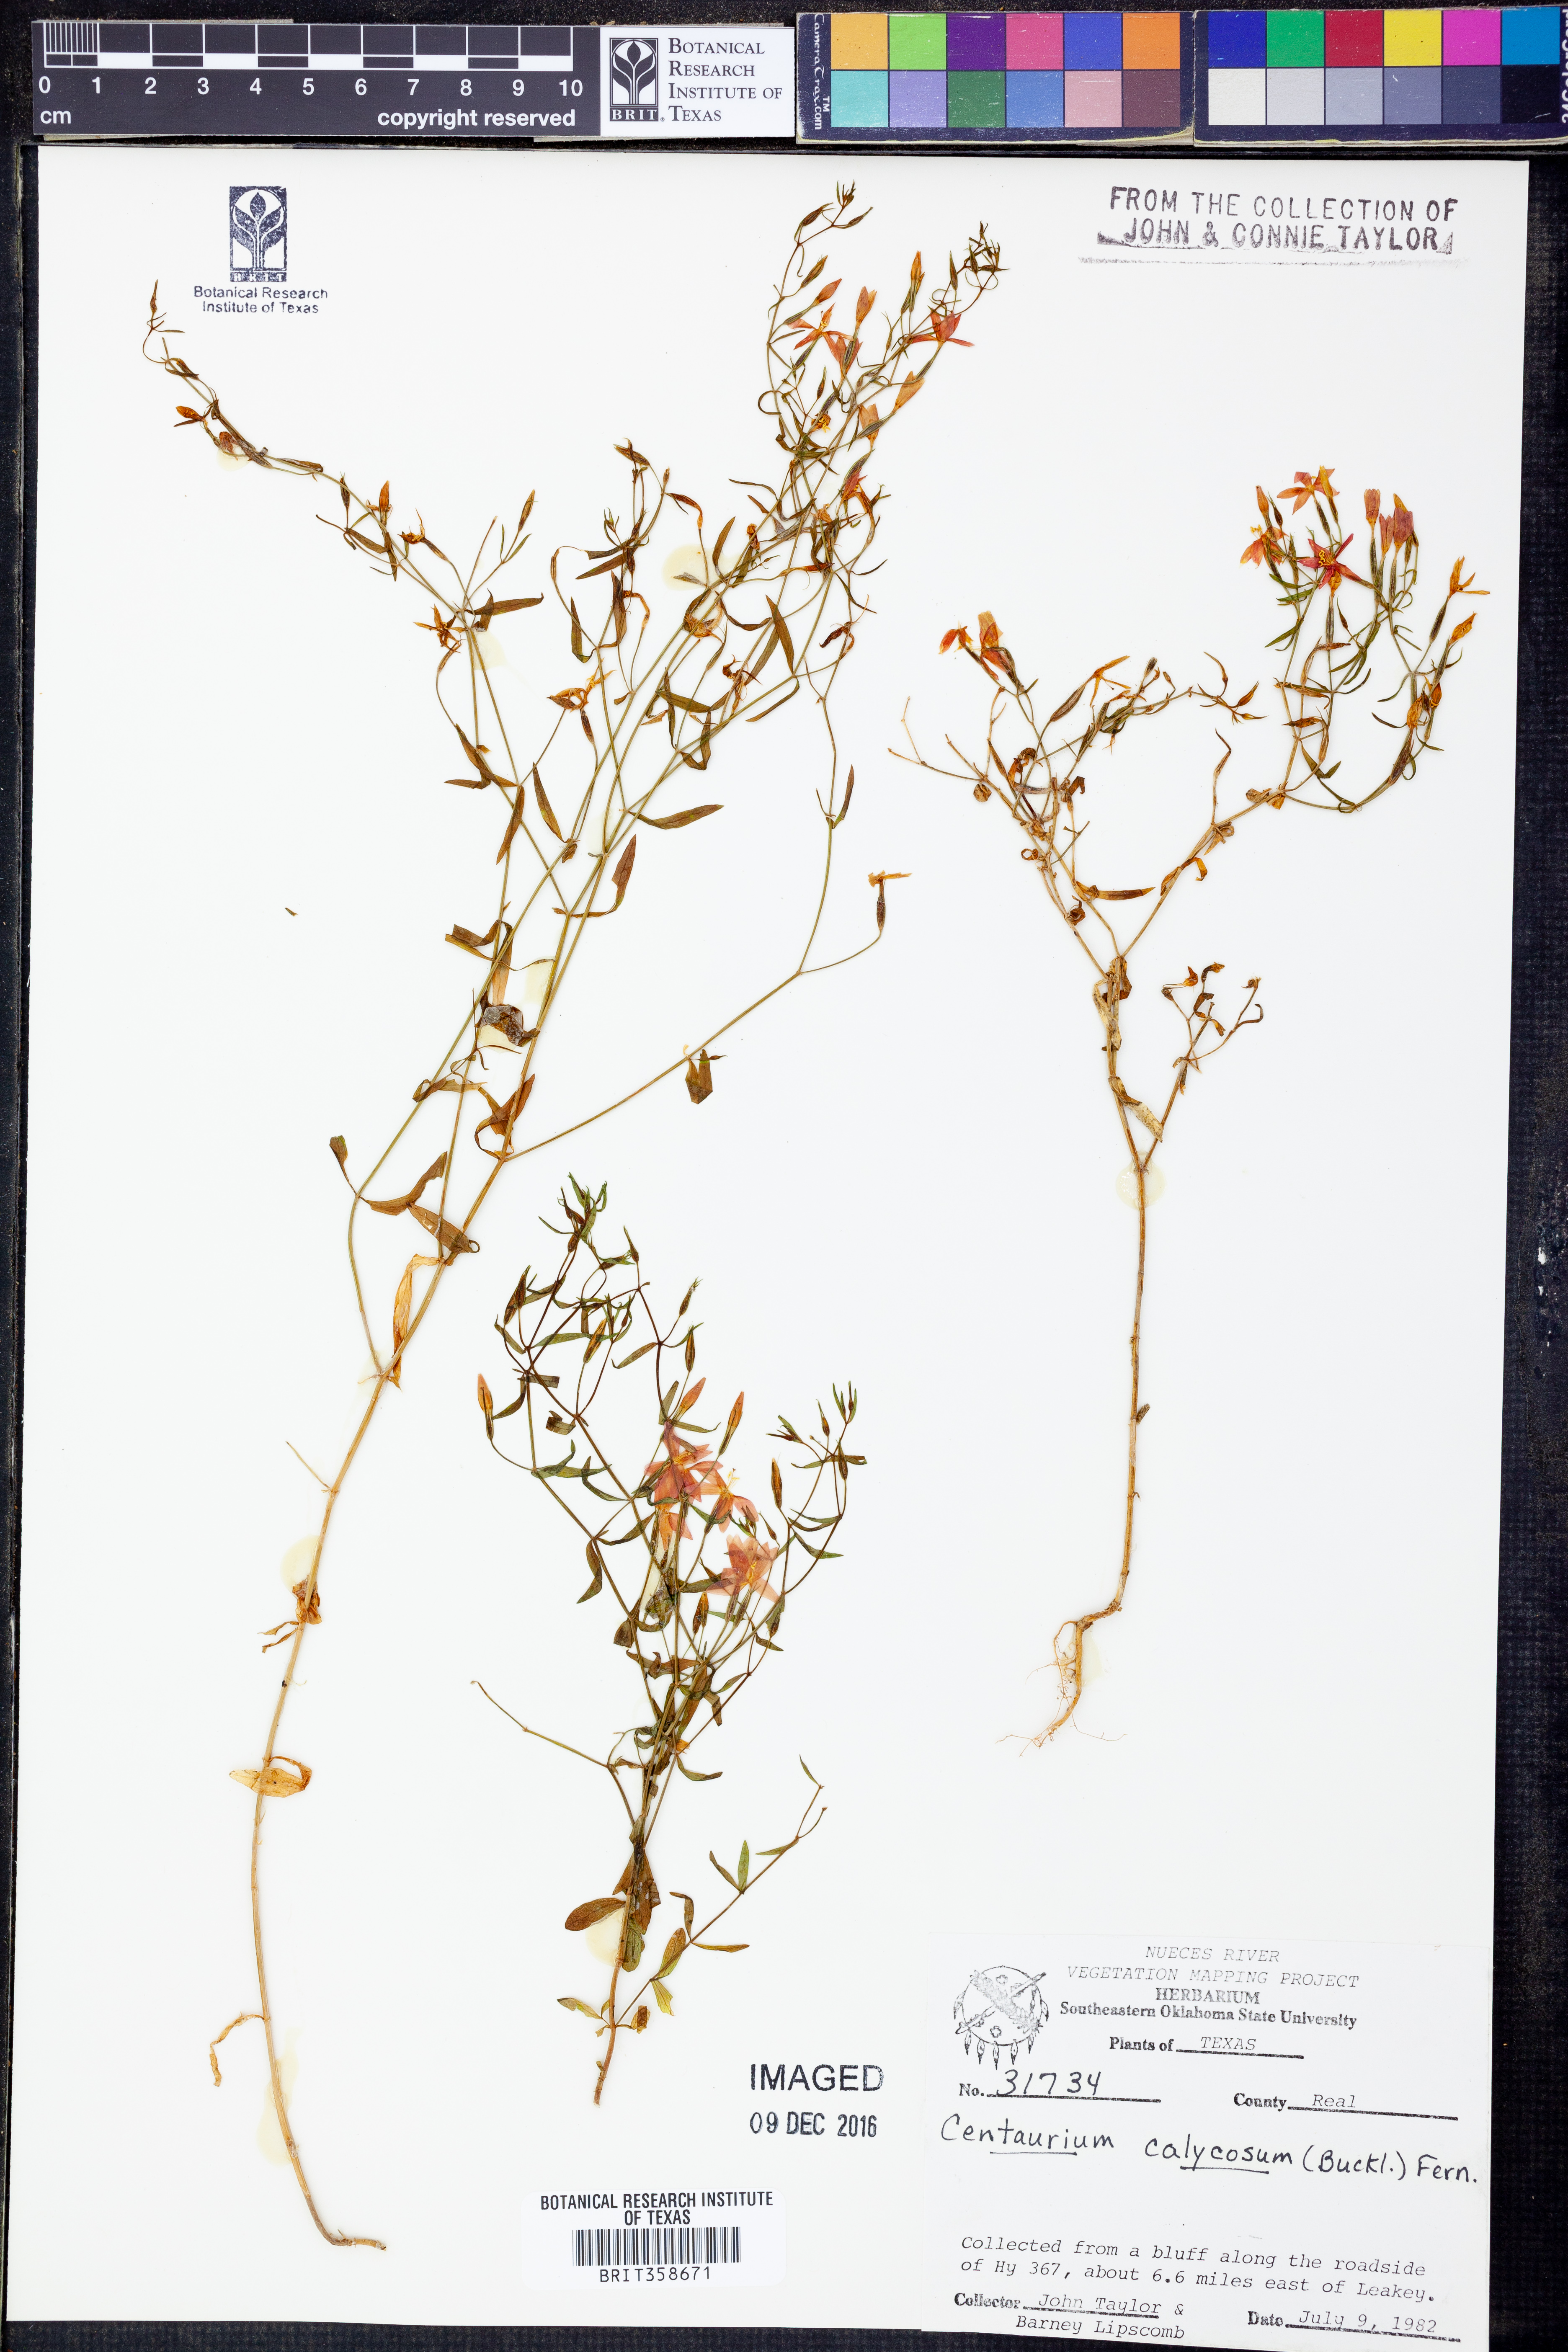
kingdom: Plantae
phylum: Tracheophyta
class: Magnoliopsida
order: Gentianales
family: Gentianaceae
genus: Zeltnera
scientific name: Zeltnera calycosa
